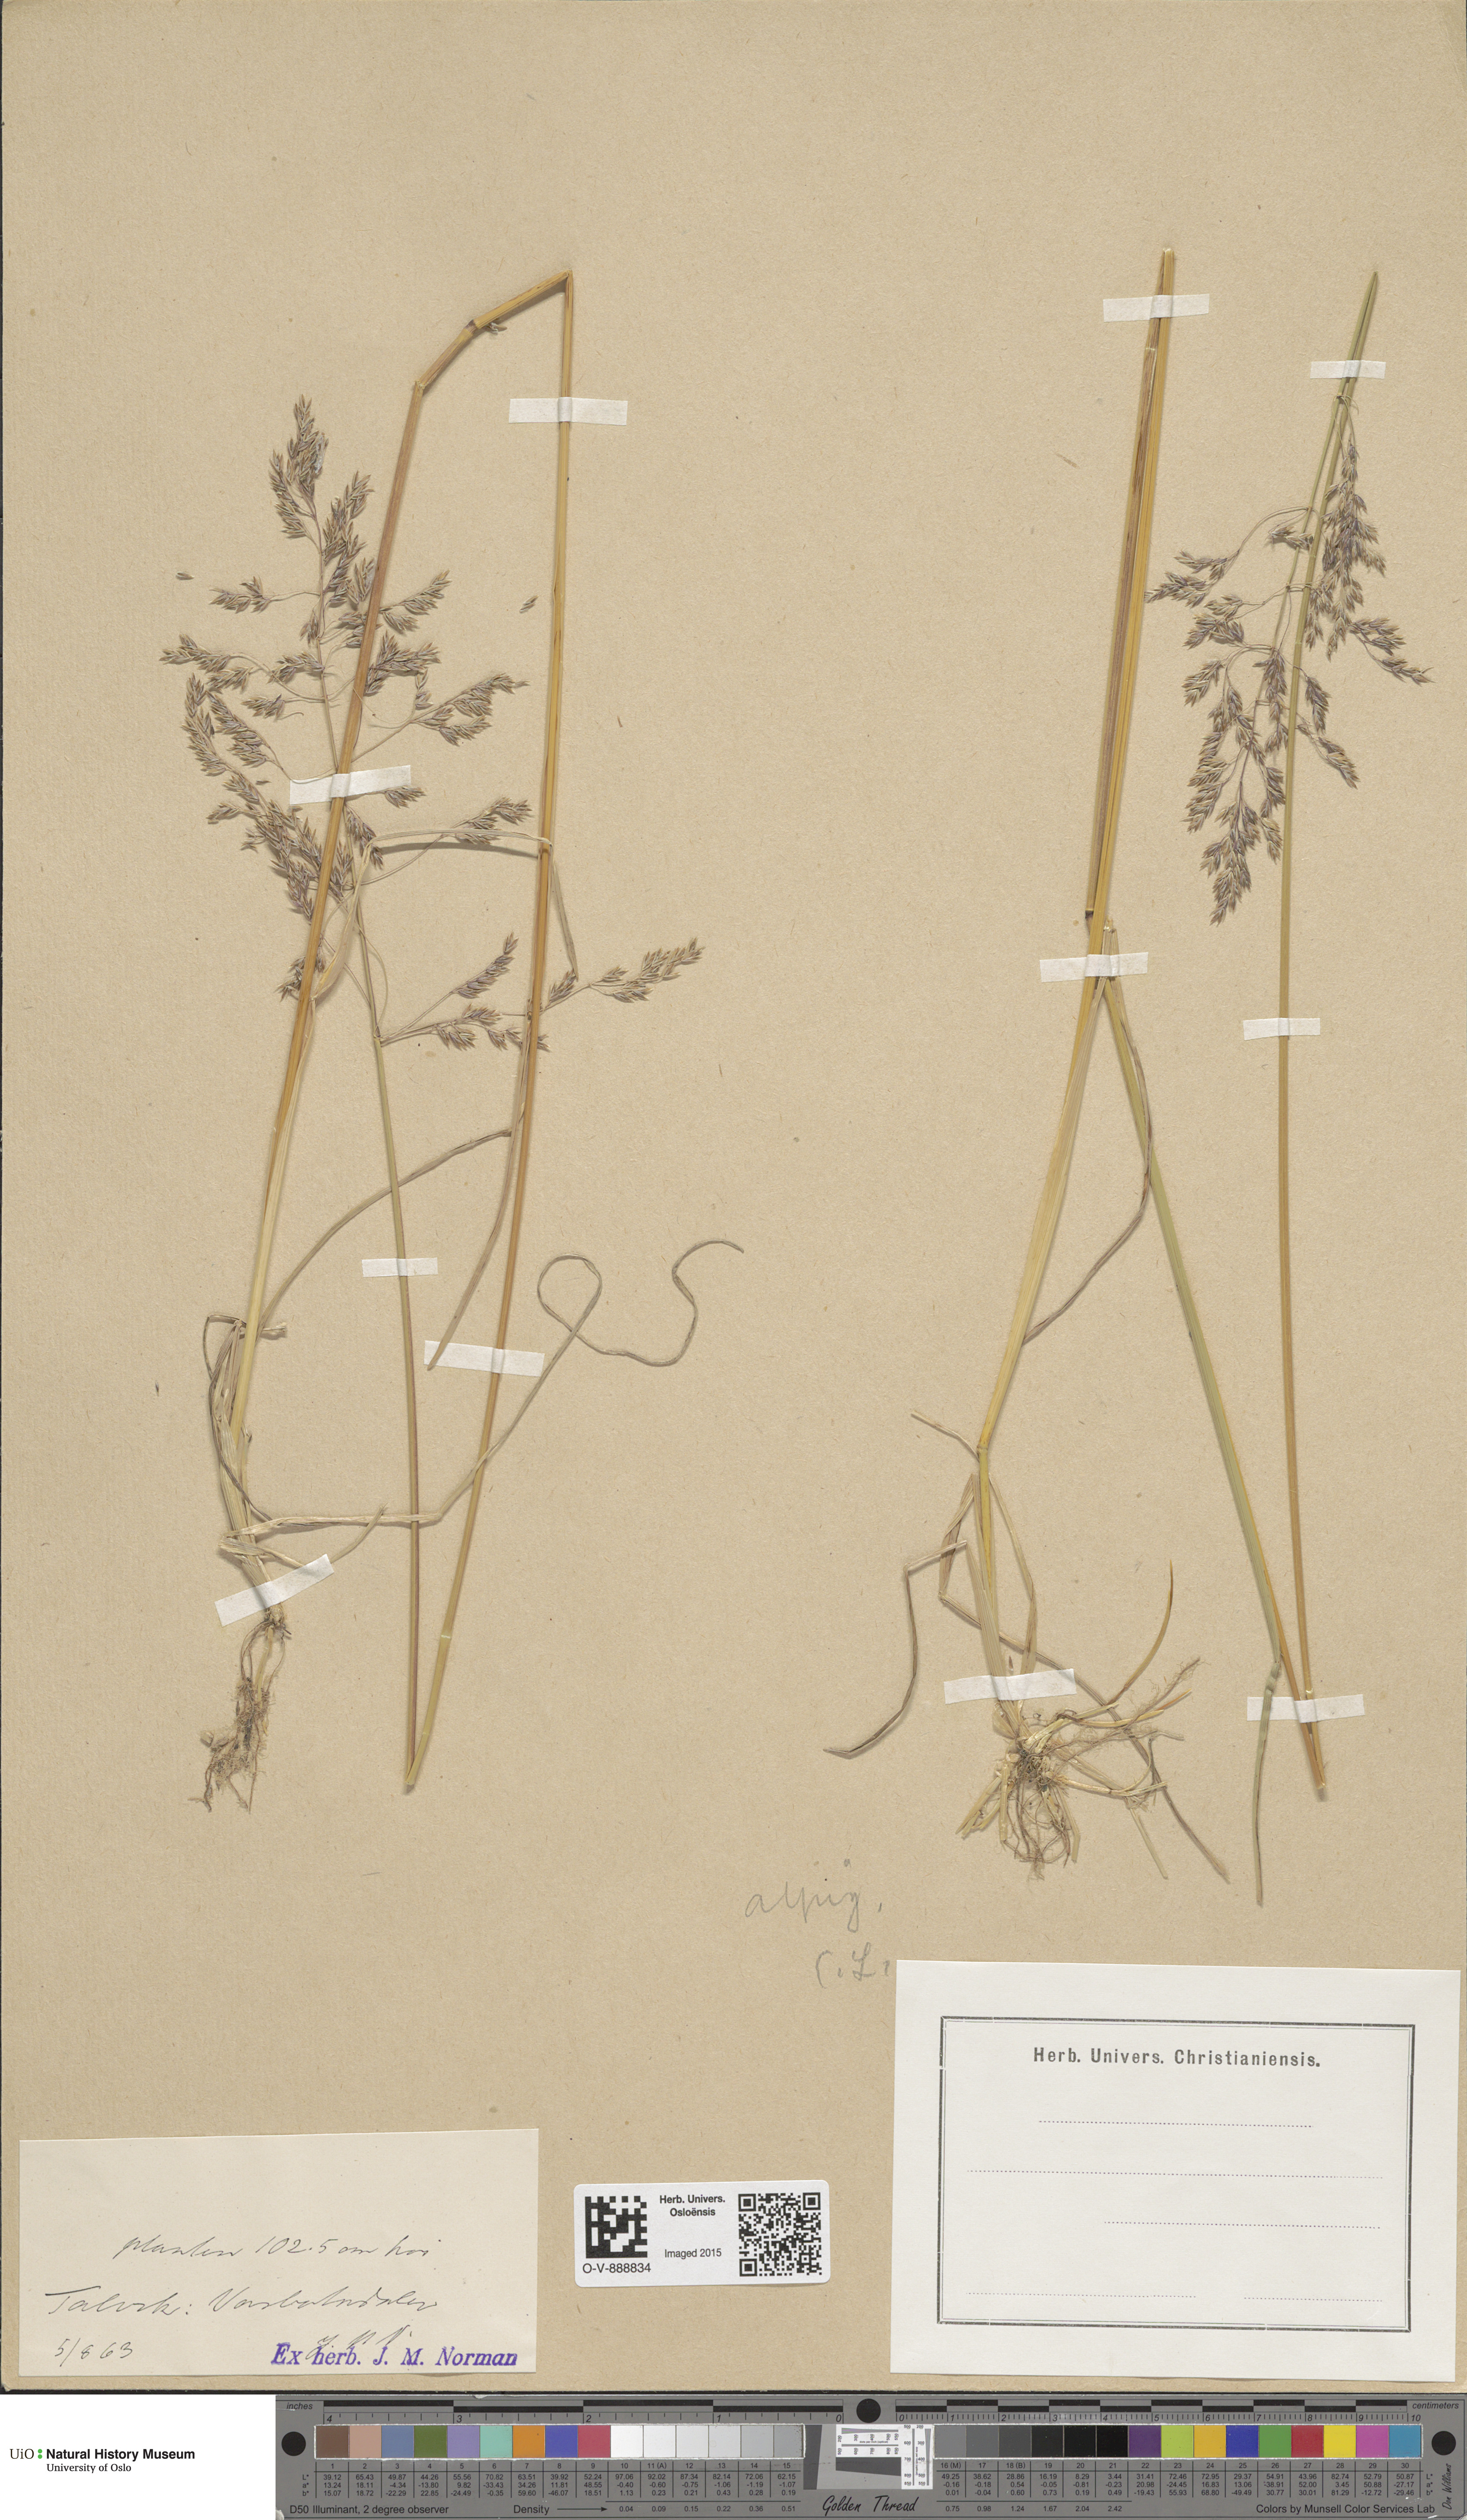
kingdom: Plantae
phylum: Tracheophyta
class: Liliopsida
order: Poales
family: Poaceae
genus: Poa
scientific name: Poa alpigena
